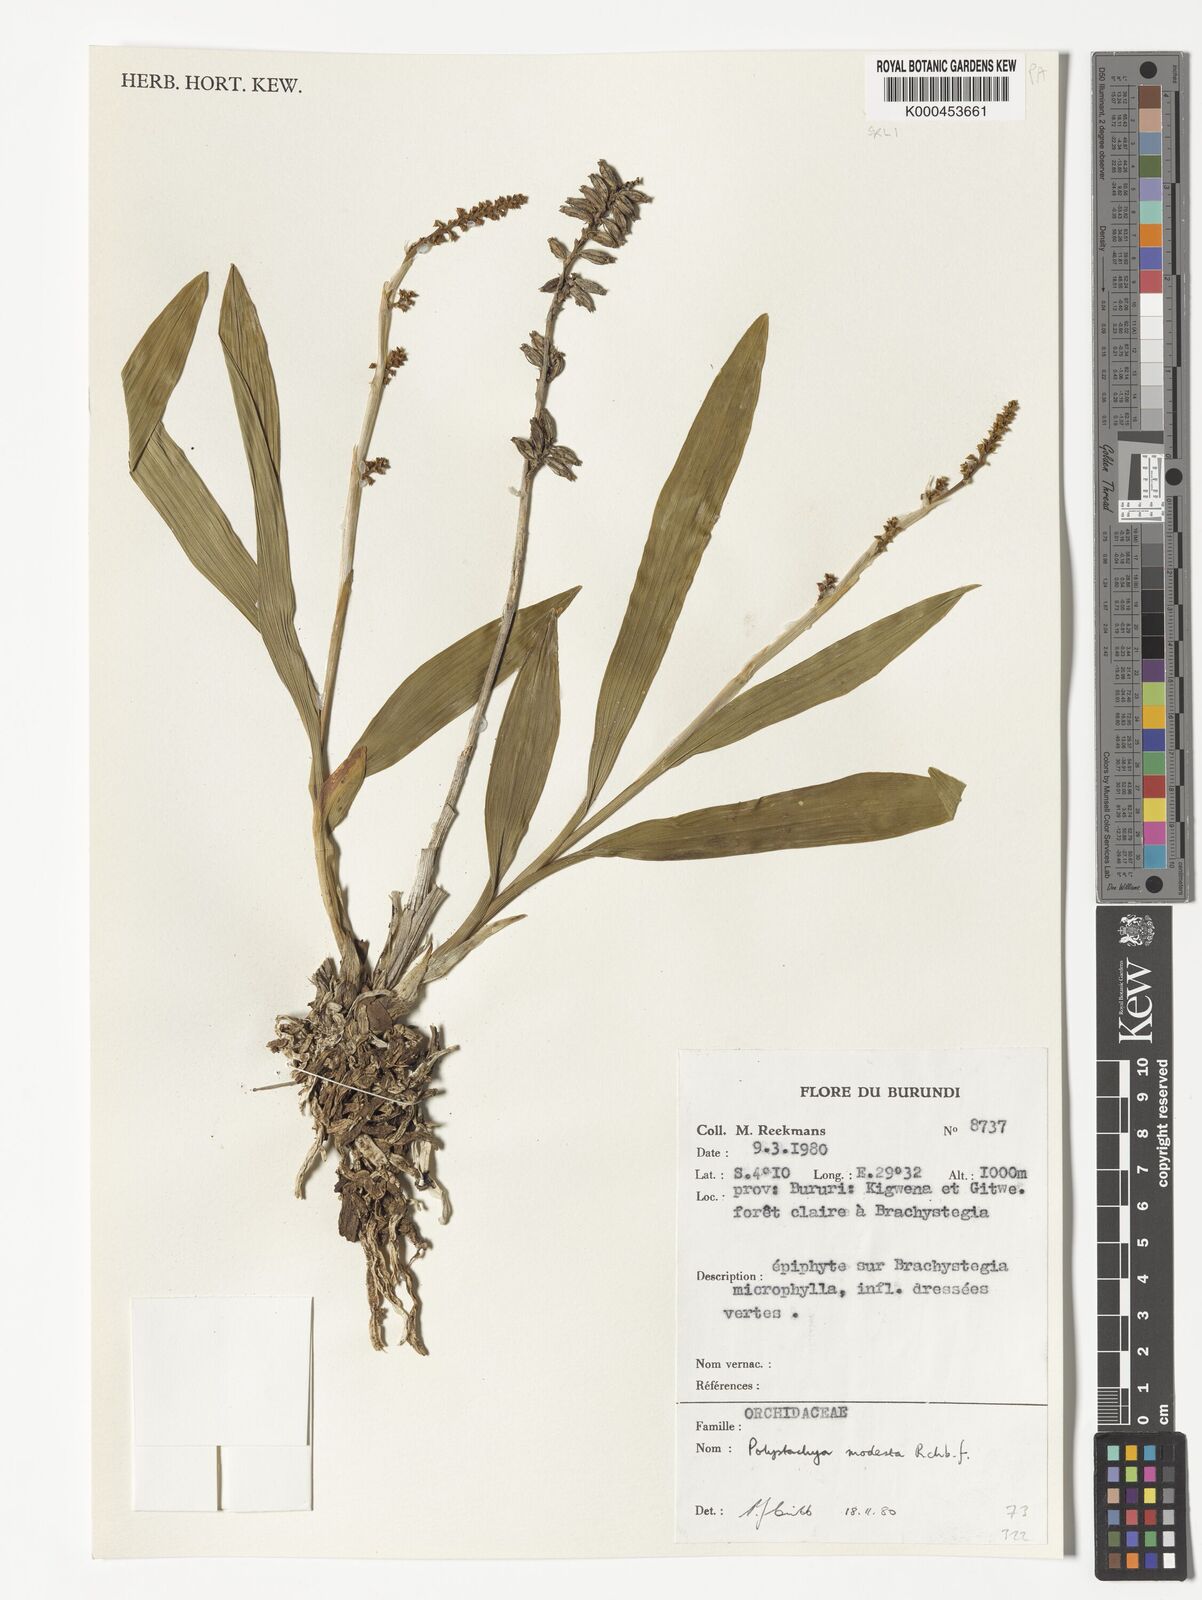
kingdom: Plantae
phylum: Tracheophyta
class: Liliopsida
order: Asparagales
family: Orchidaceae
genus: Polystachya
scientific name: Polystachya modesta
